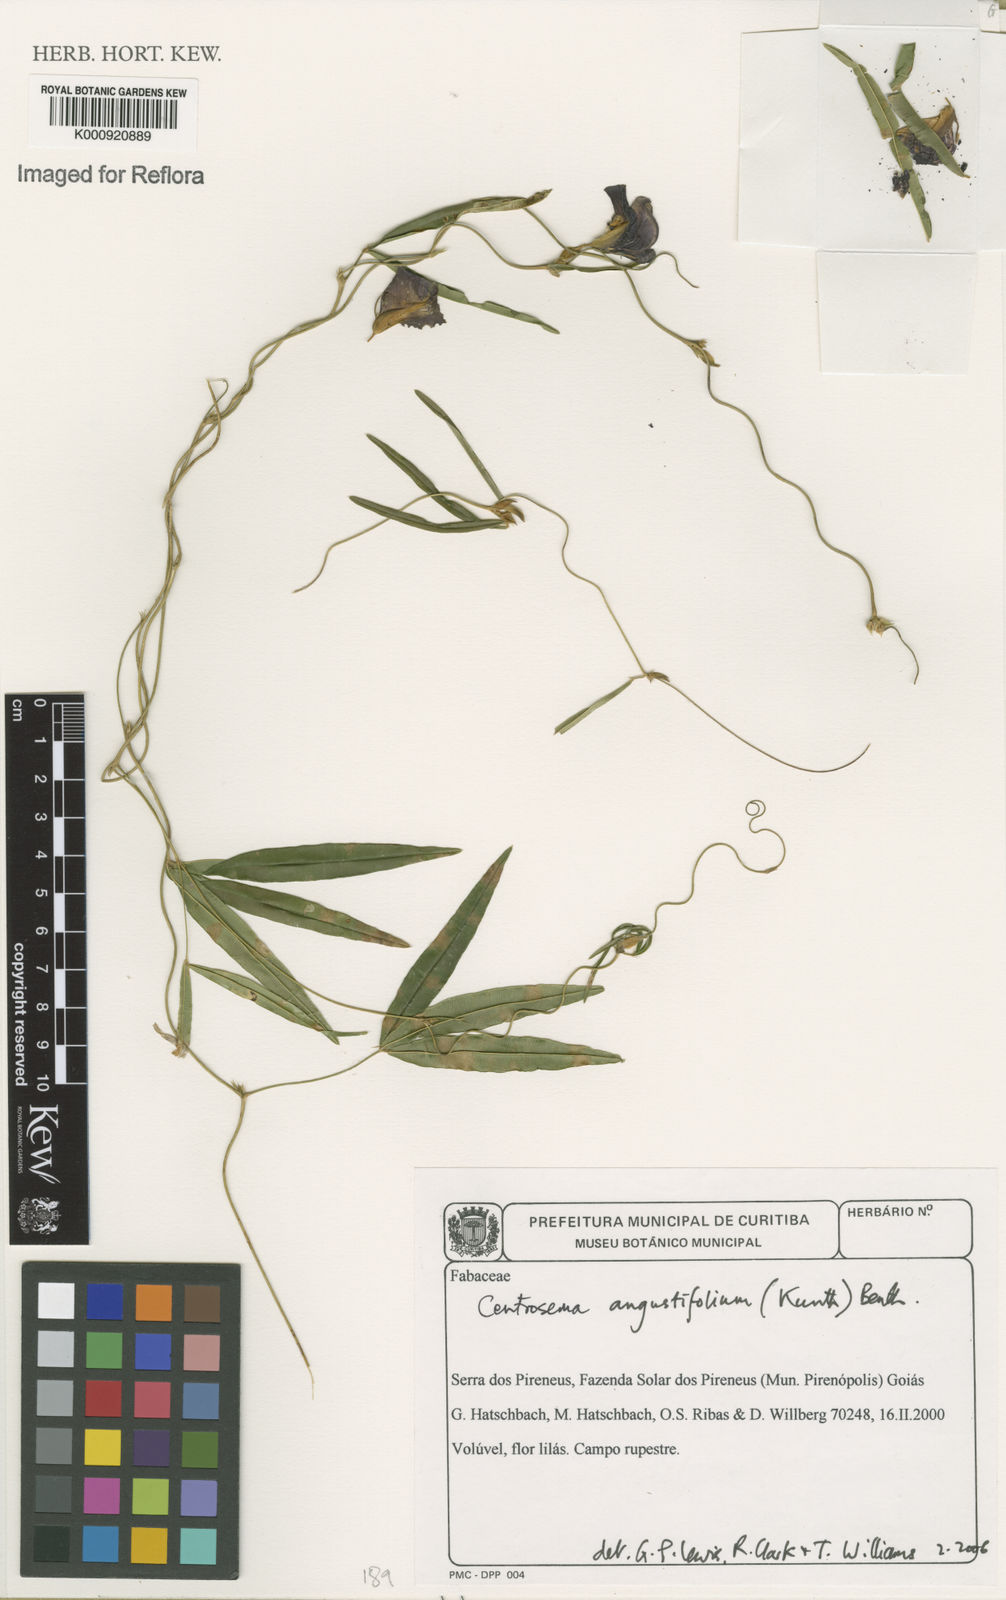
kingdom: Plantae
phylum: Tracheophyta
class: Magnoliopsida
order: Fabales
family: Fabaceae
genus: Centrosema
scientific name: Centrosema brasilianum
